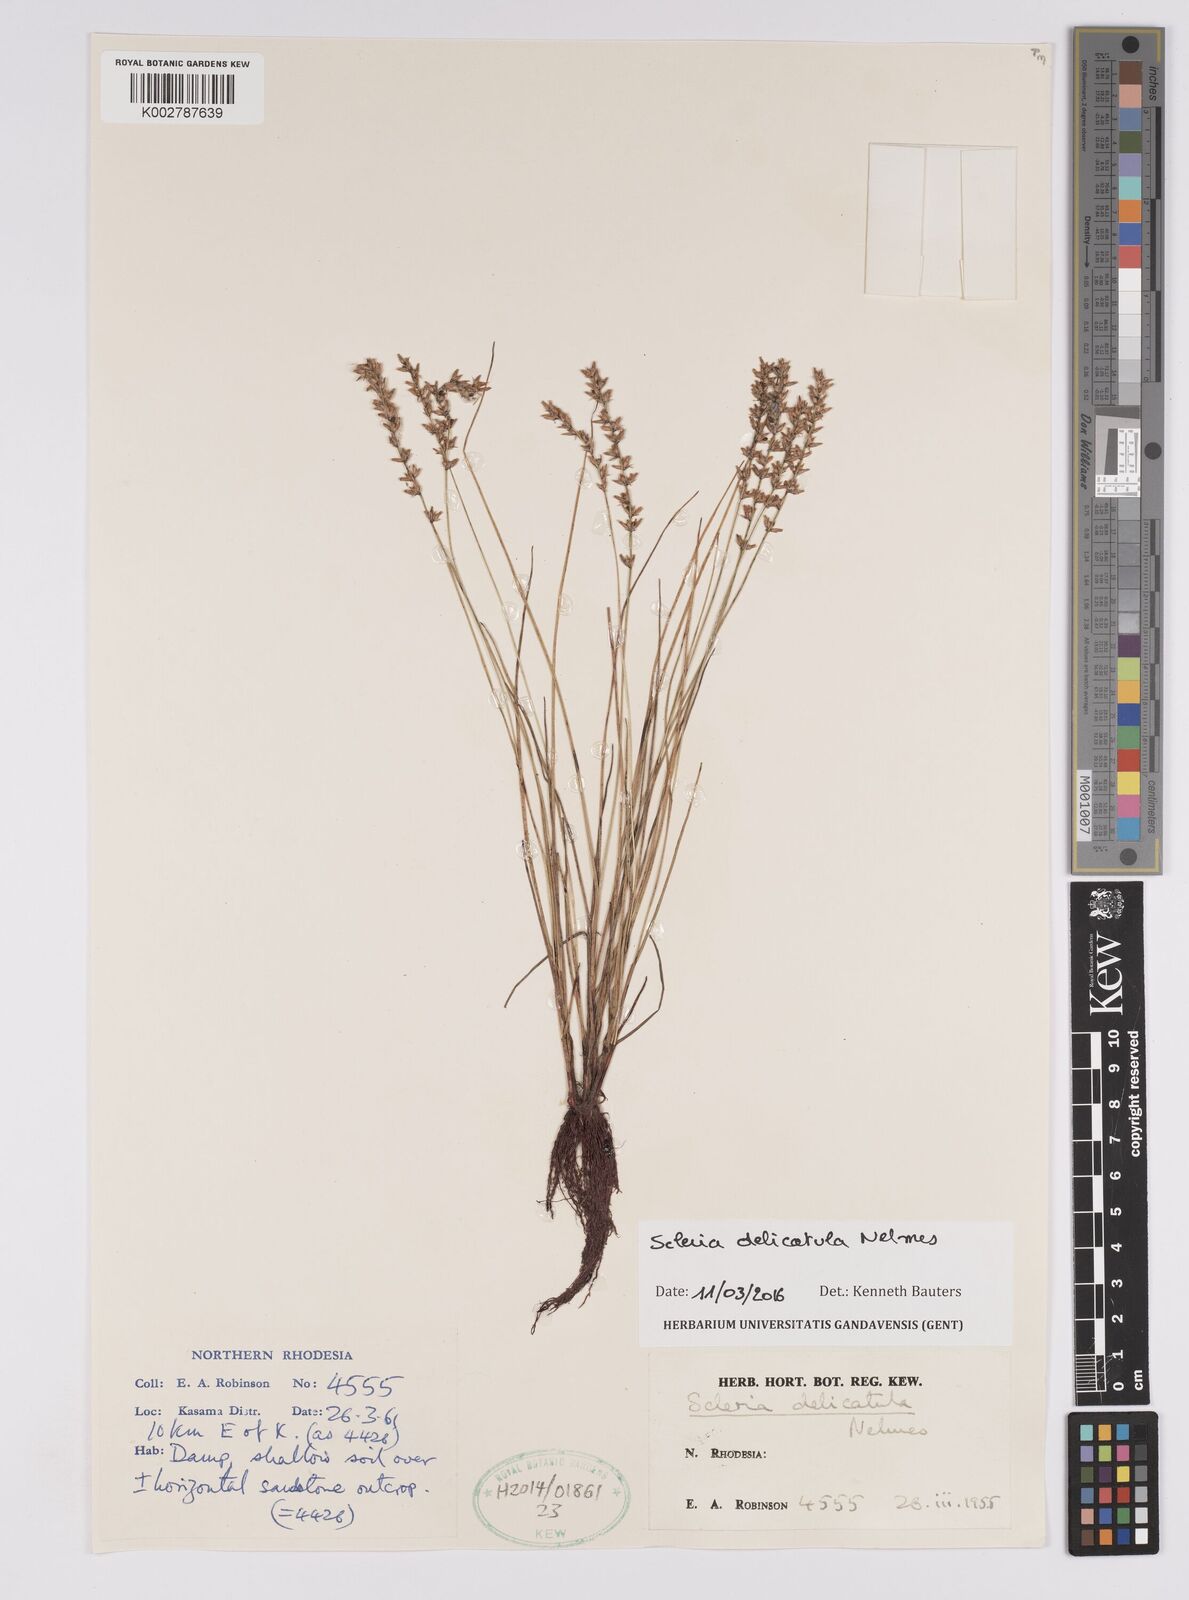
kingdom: Plantae
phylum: Tracheophyta
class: Liliopsida
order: Poales
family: Cyperaceae
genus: Scleria
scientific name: Scleria delicatula
